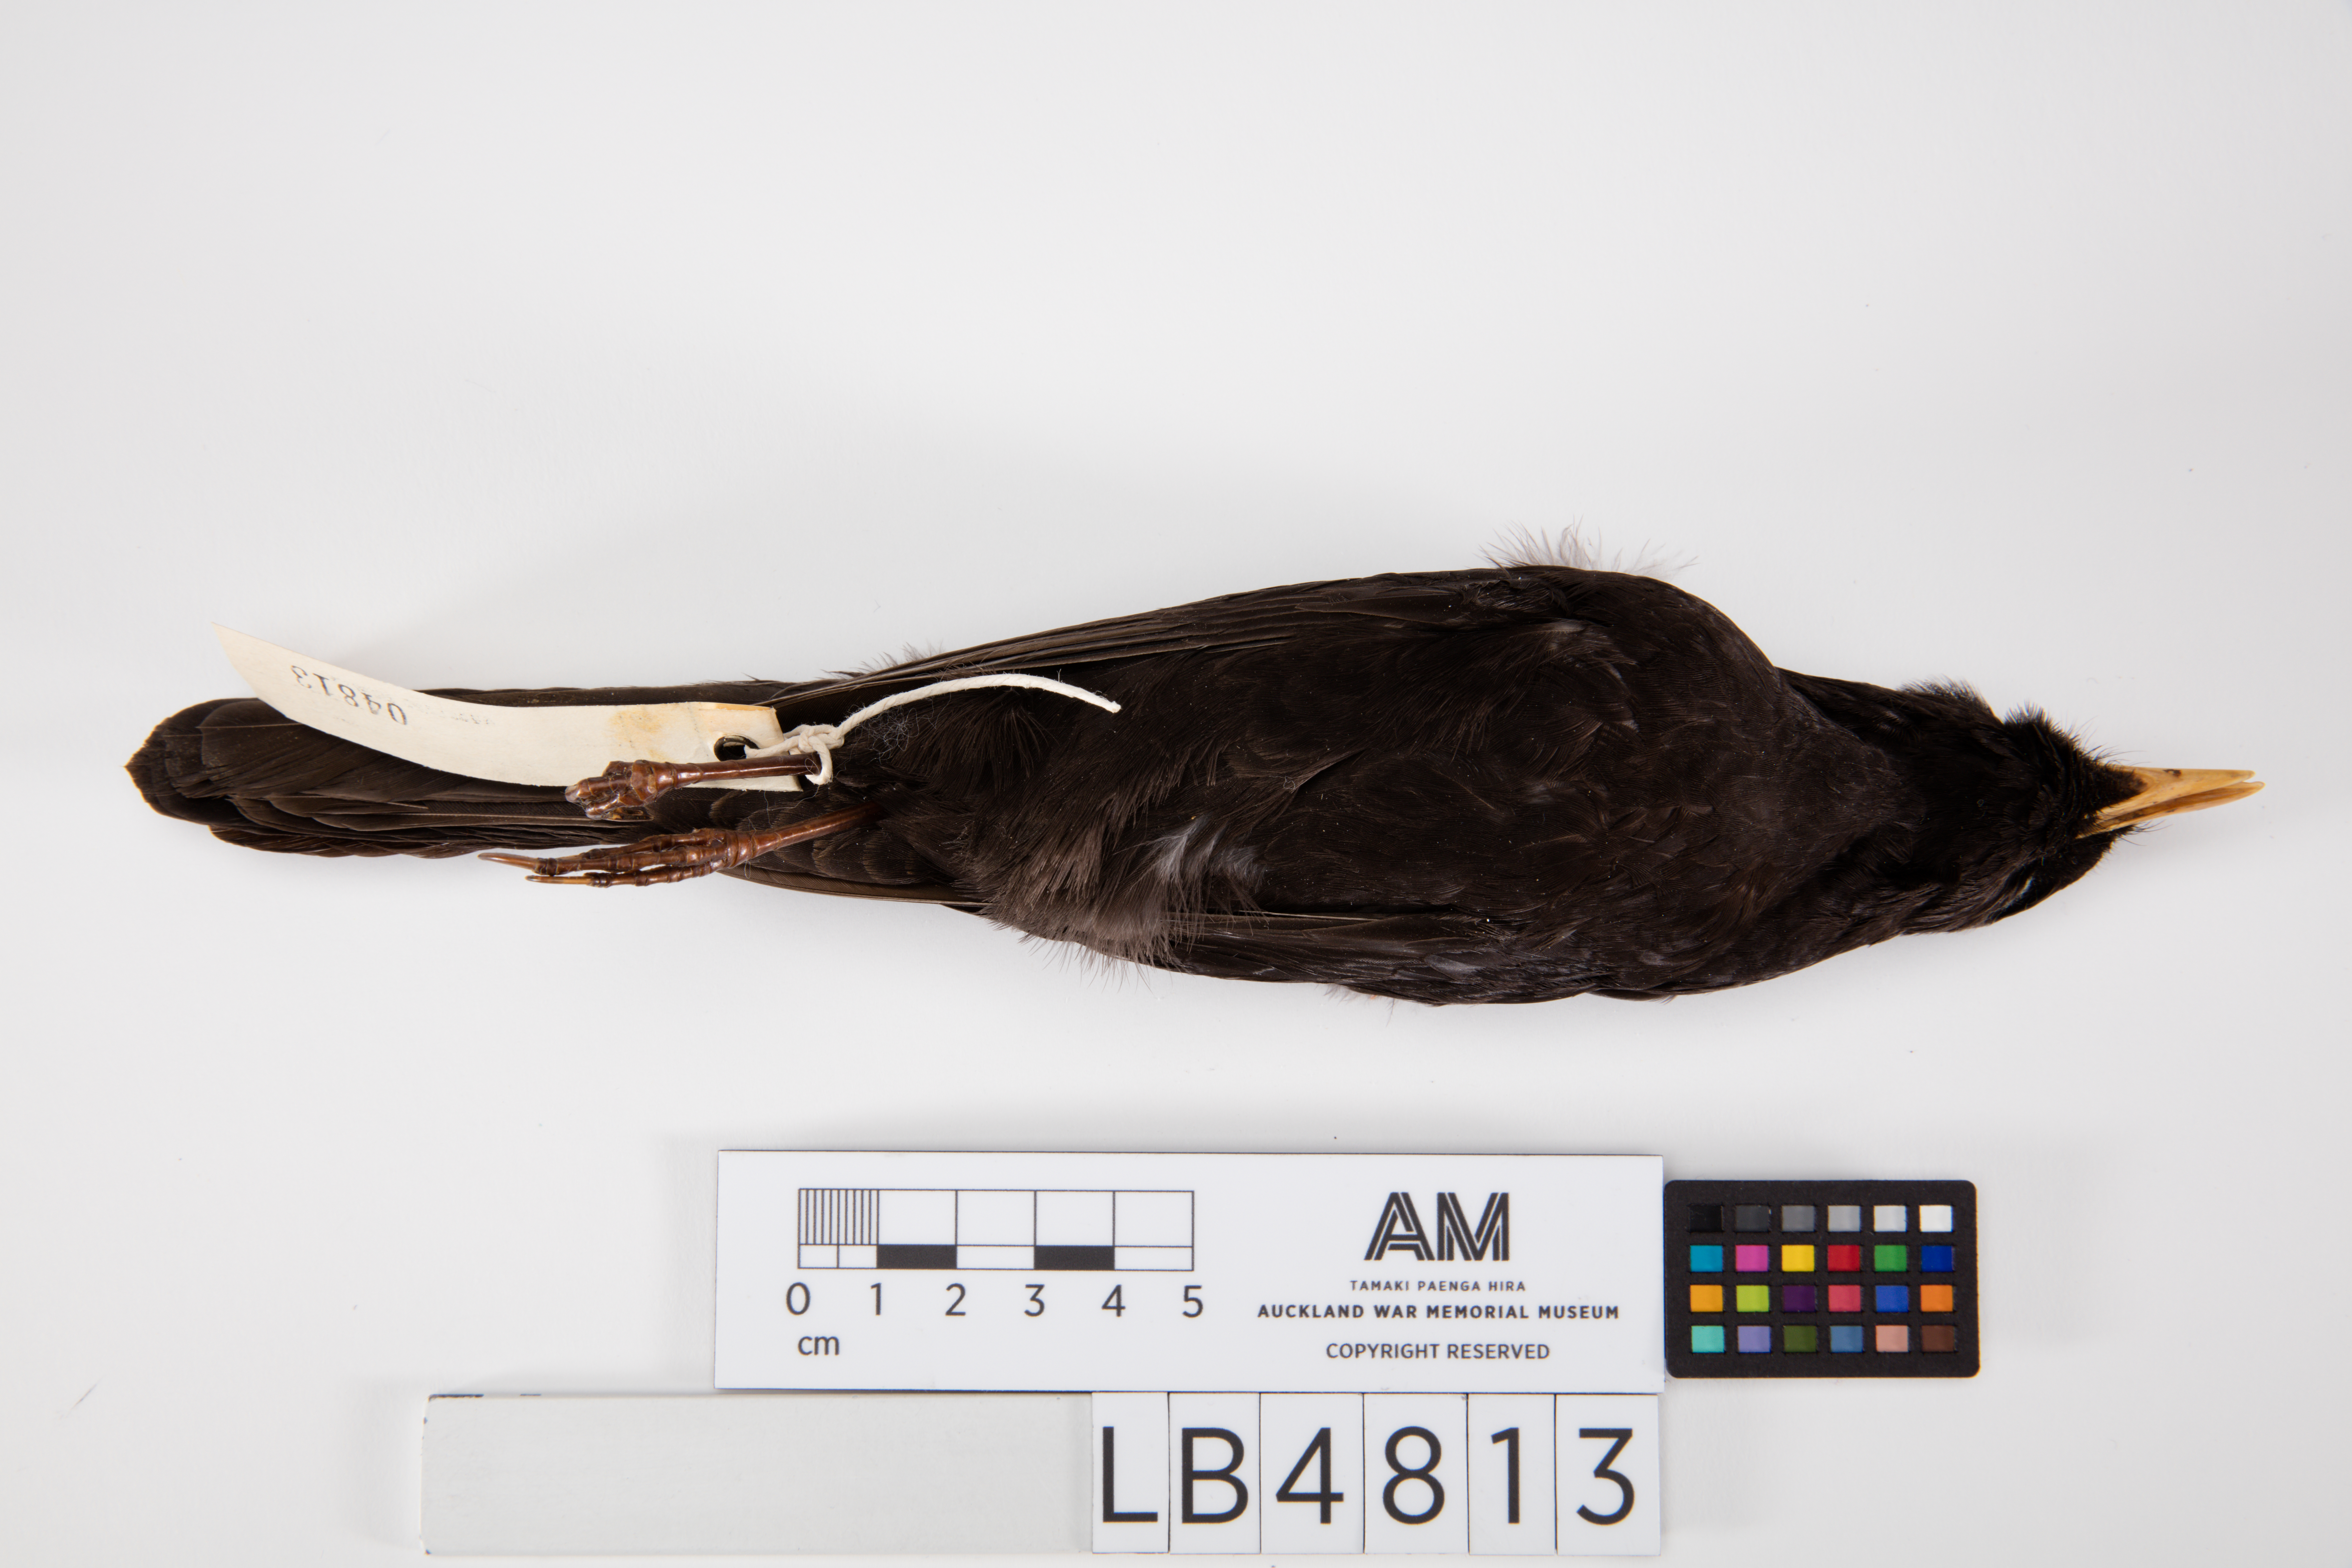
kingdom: Animalia
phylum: Chordata
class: Aves
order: Passeriformes
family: Turdidae
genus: Turdus
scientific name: Turdus merula
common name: Common blackbird
